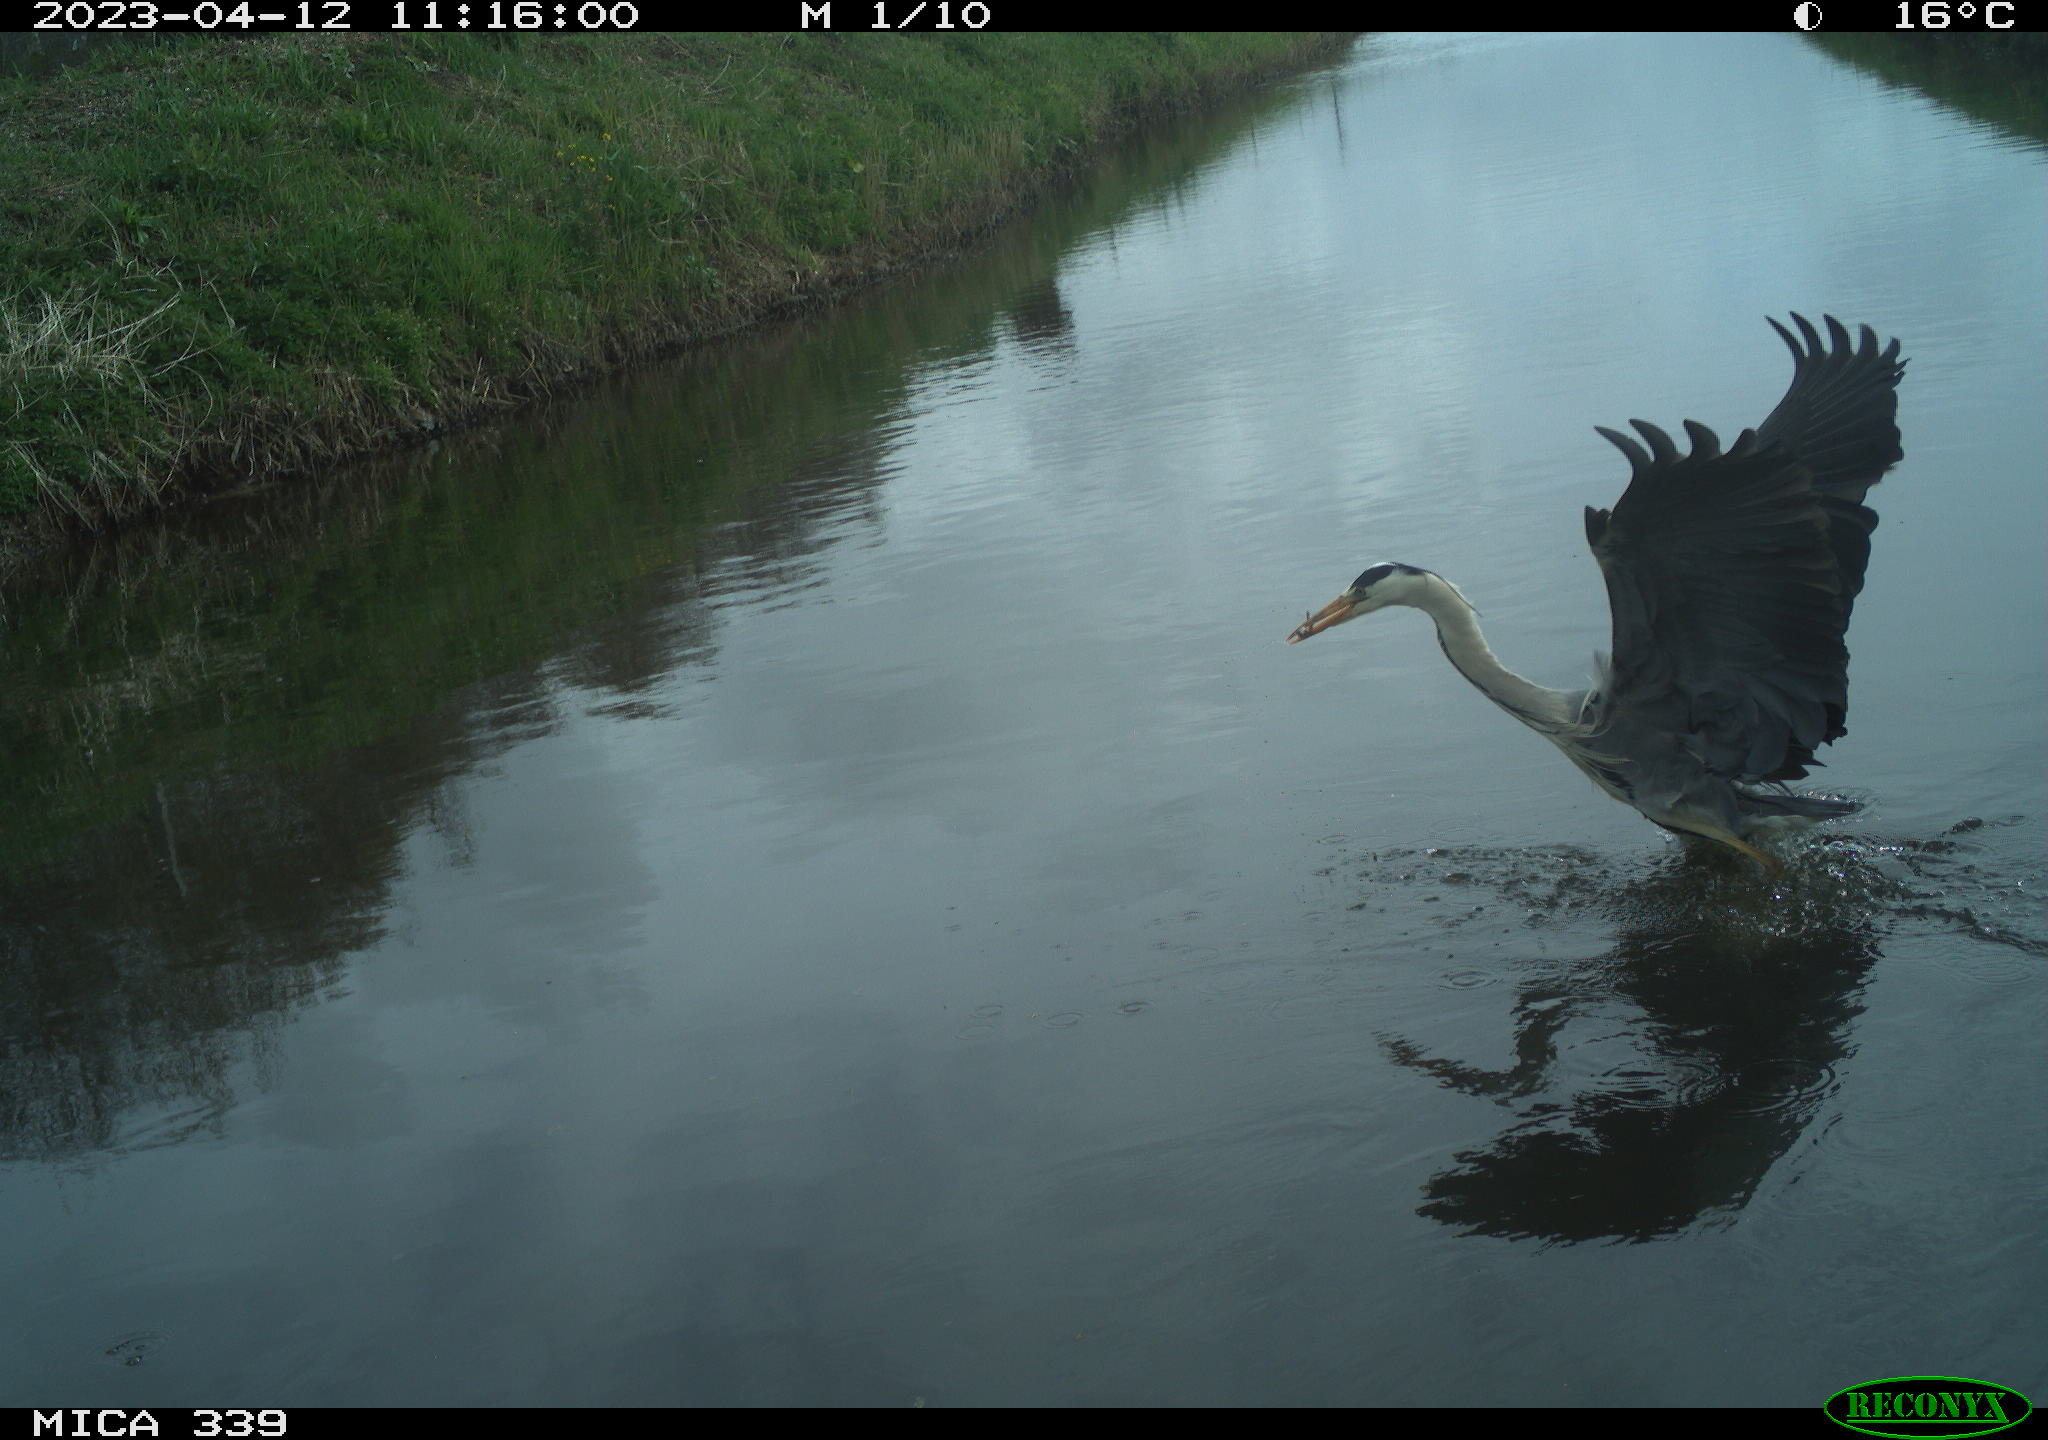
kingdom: Animalia
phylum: Chordata
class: Aves
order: Pelecaniformes
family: Ardeidae
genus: Ardea
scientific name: Ardea
